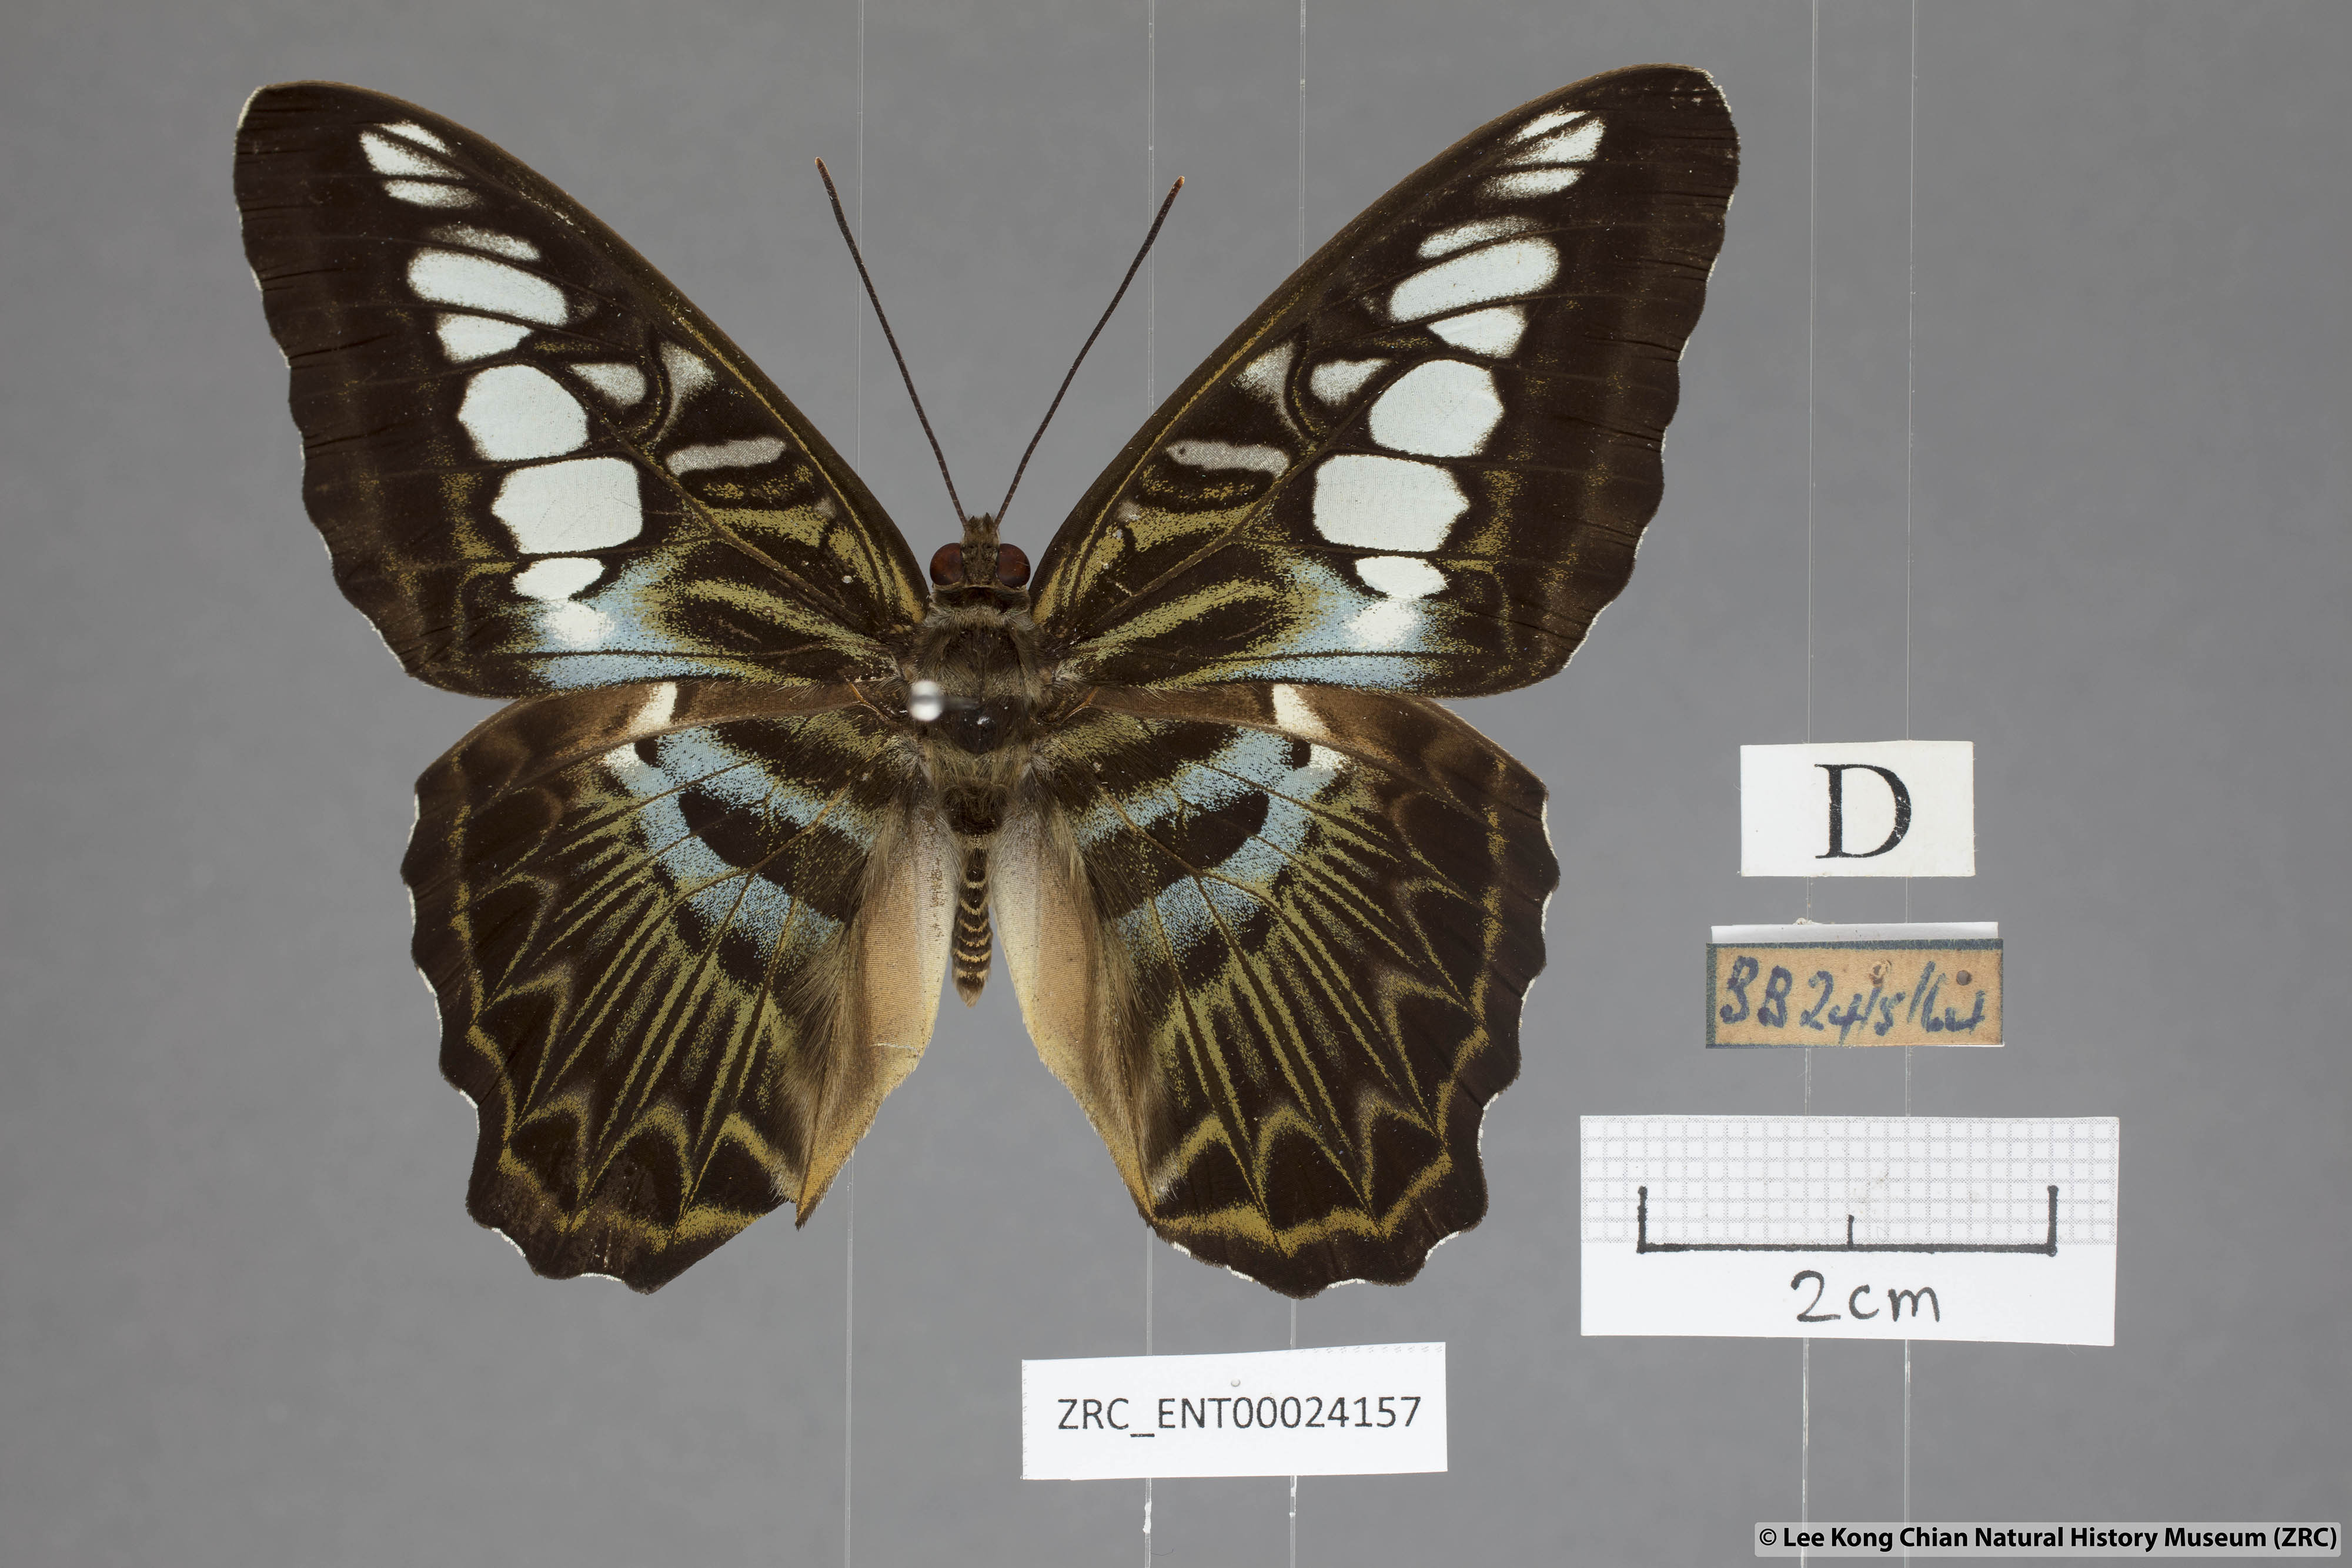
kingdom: Animalia
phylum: Arthropoda
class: Insecta
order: Lepidoptera
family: Nymphalidae
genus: Kallima
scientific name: Kallima sylvia
